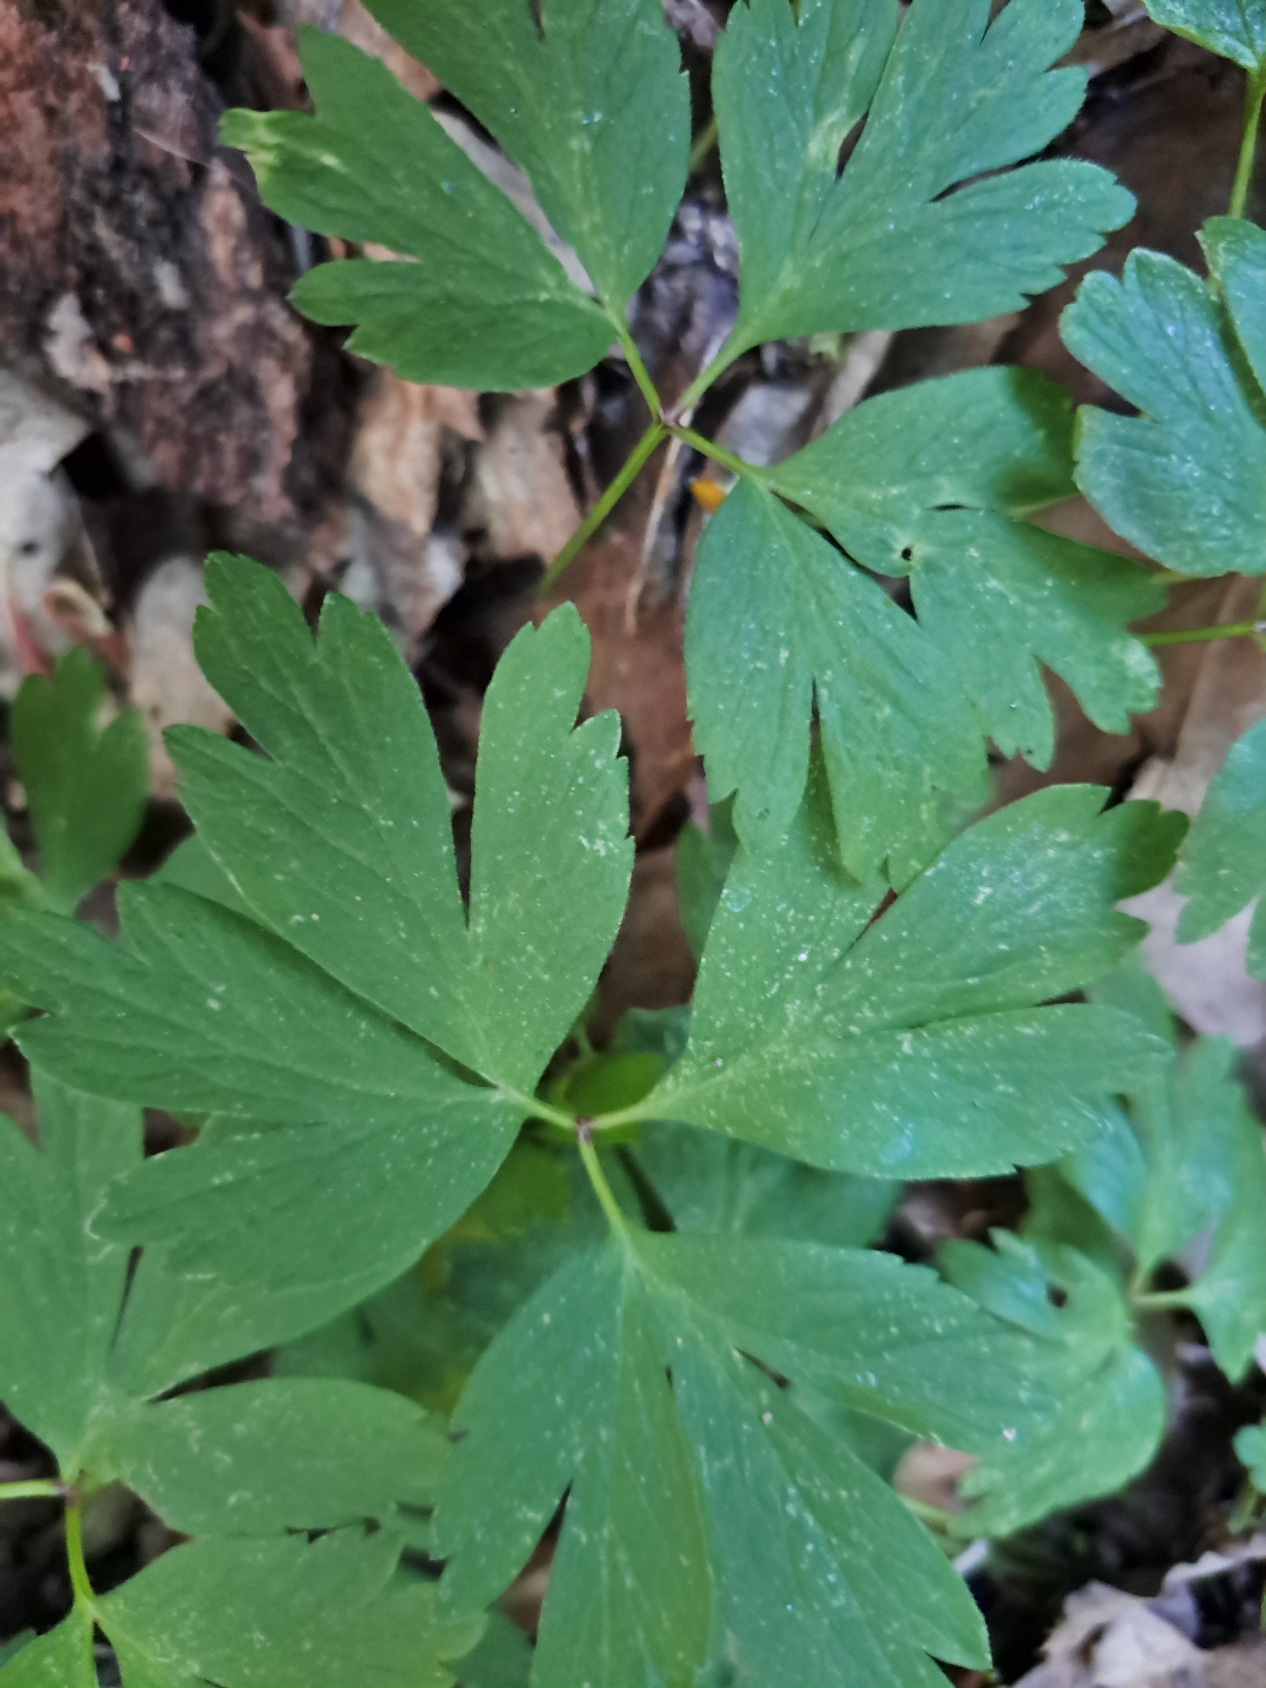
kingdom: Plantae
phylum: Tracheophyta
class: Magnoliopsida
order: Ranunculales
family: Ranunculaceae
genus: Anemone
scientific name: Anemone nemorosa
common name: Hvid anemone
